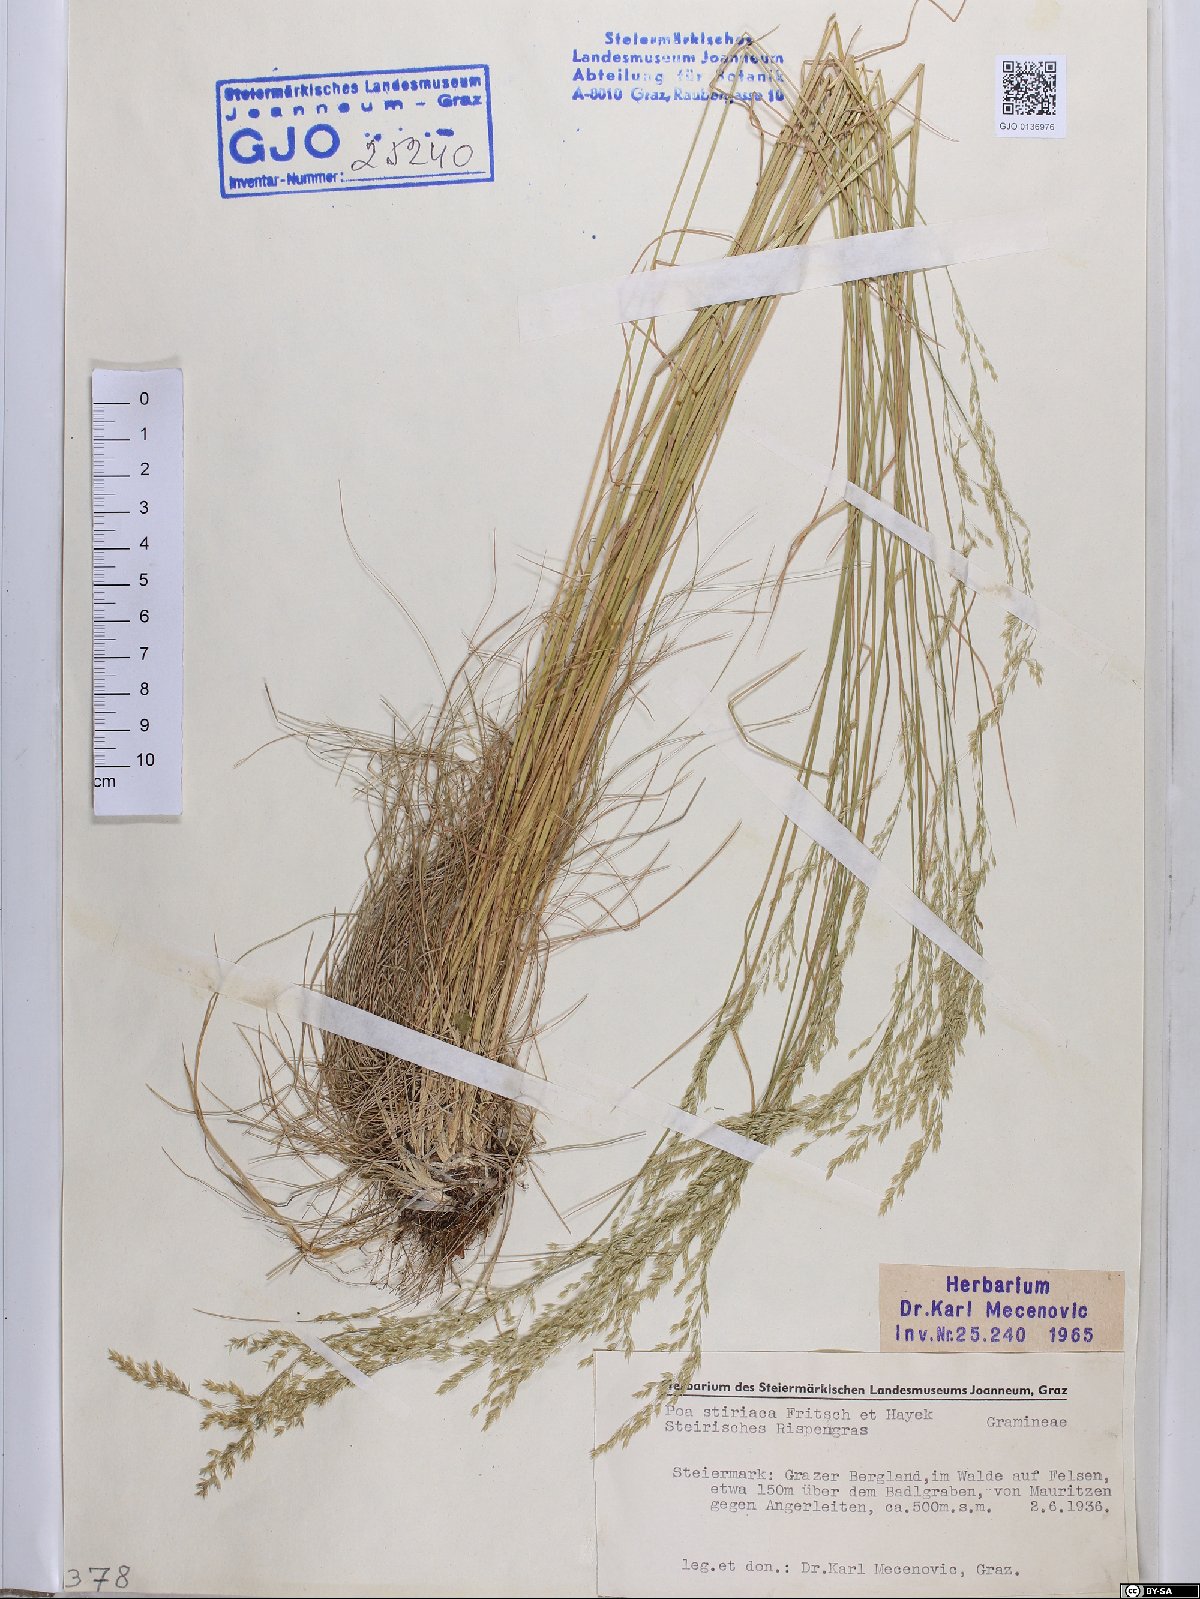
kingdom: Plantae
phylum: Tracheophyta
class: Liliopsida
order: Poales
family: Poaceae
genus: Poa
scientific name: Poa stiriaca
